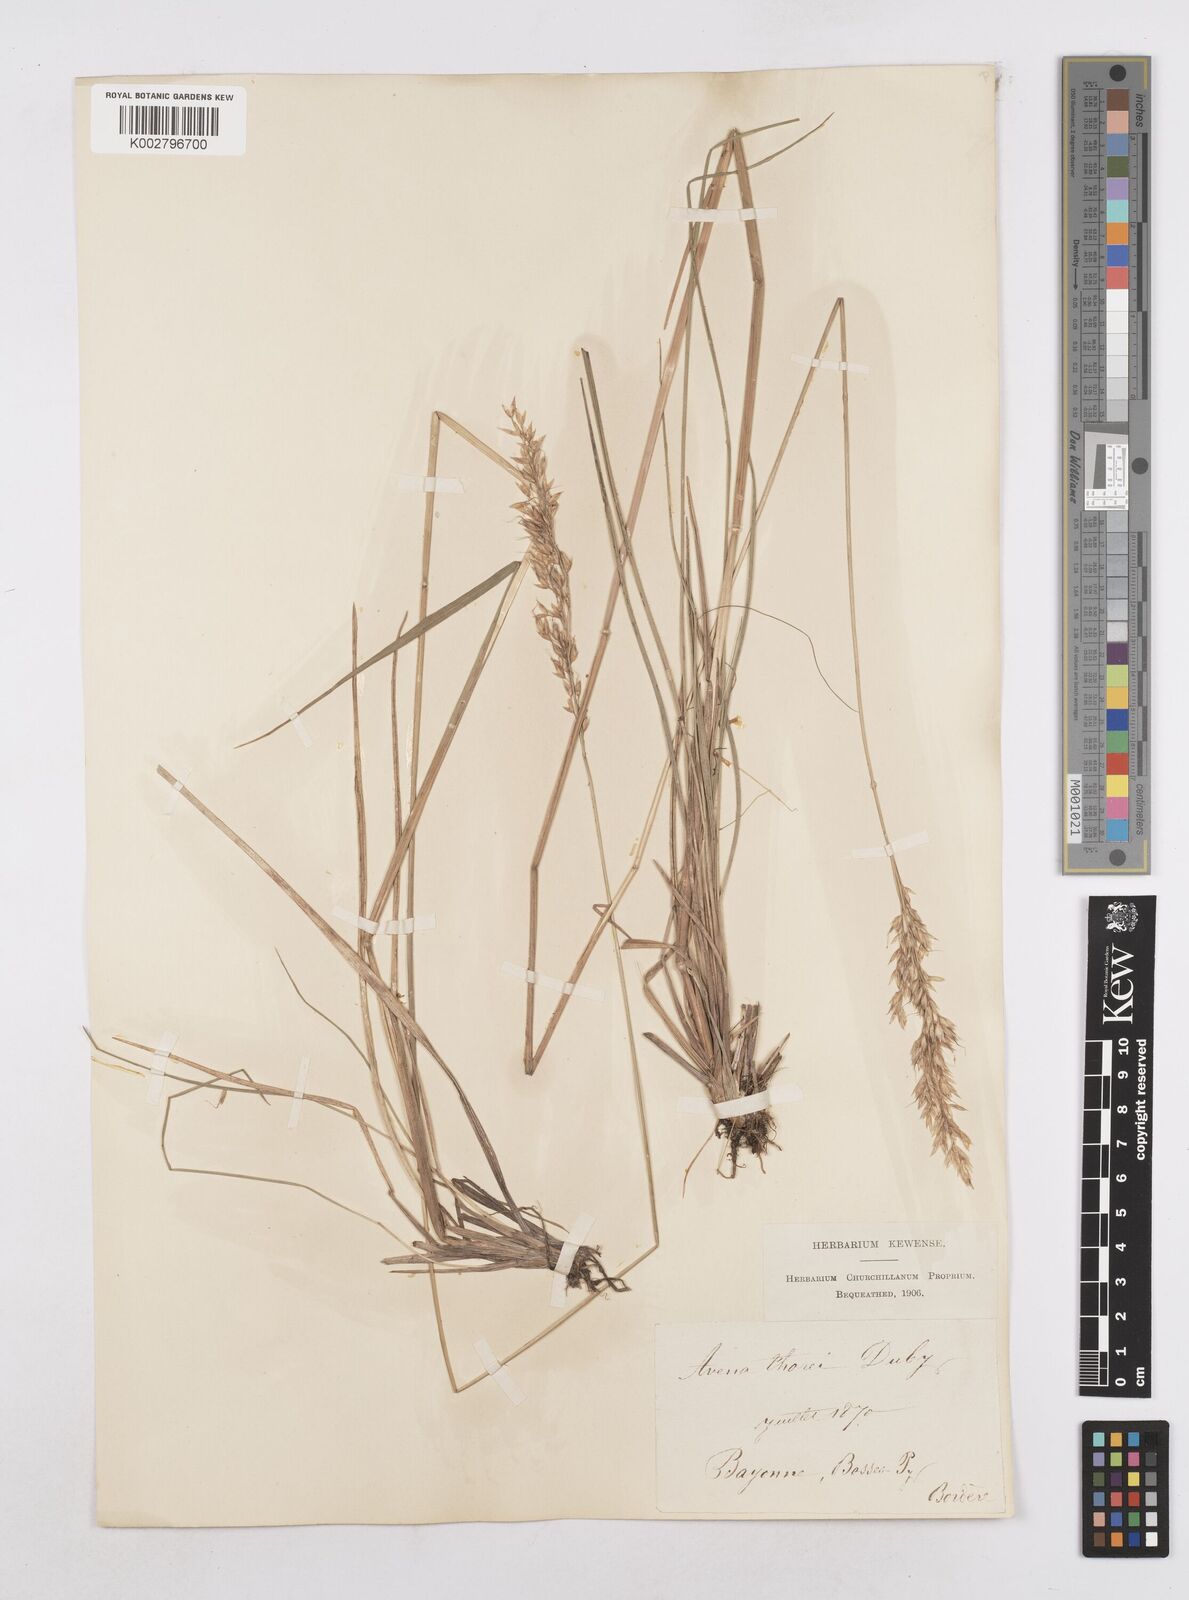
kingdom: Plantae
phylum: Tracheophyta
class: Liliopsida
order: Poales
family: Poaceae
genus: Arrhenatherum
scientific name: Arrhenatherum longifolium
